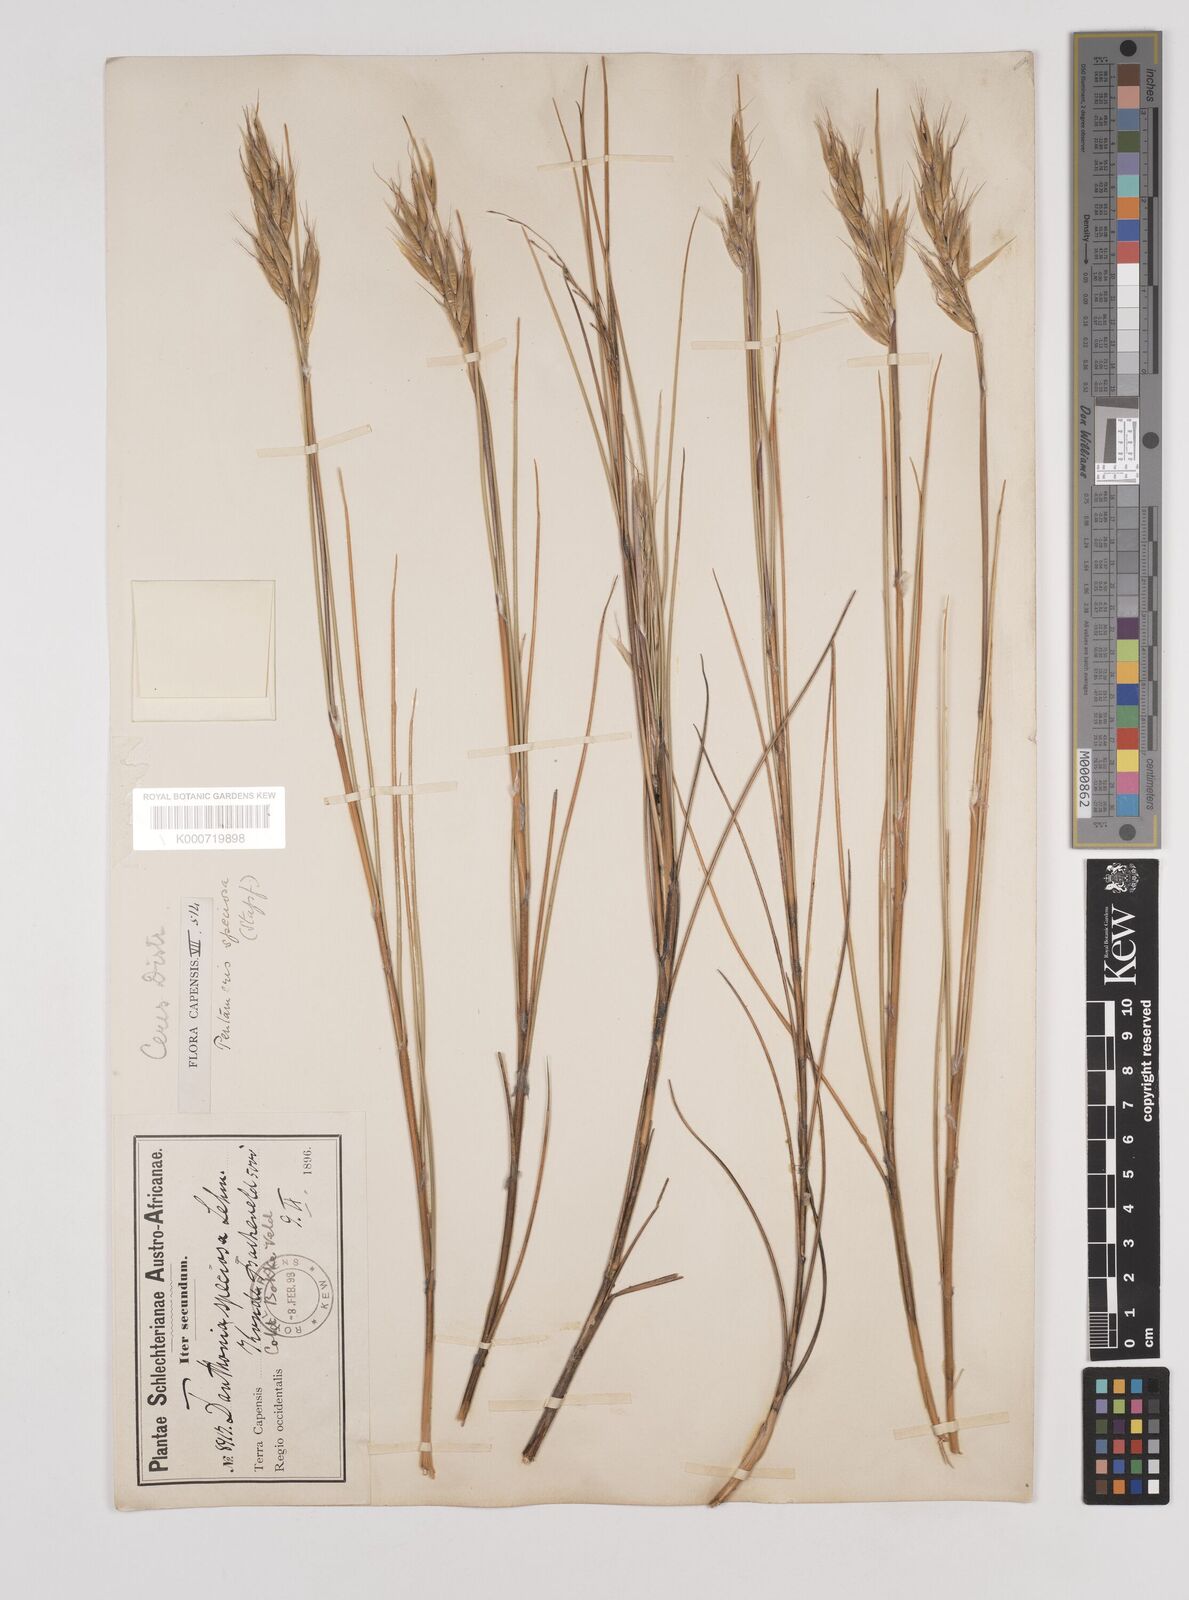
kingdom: Plantae
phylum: Tracheophyta
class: Liliopsida
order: Poales
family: Poaceae
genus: Pentameris
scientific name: Pentameris macrocalycina
